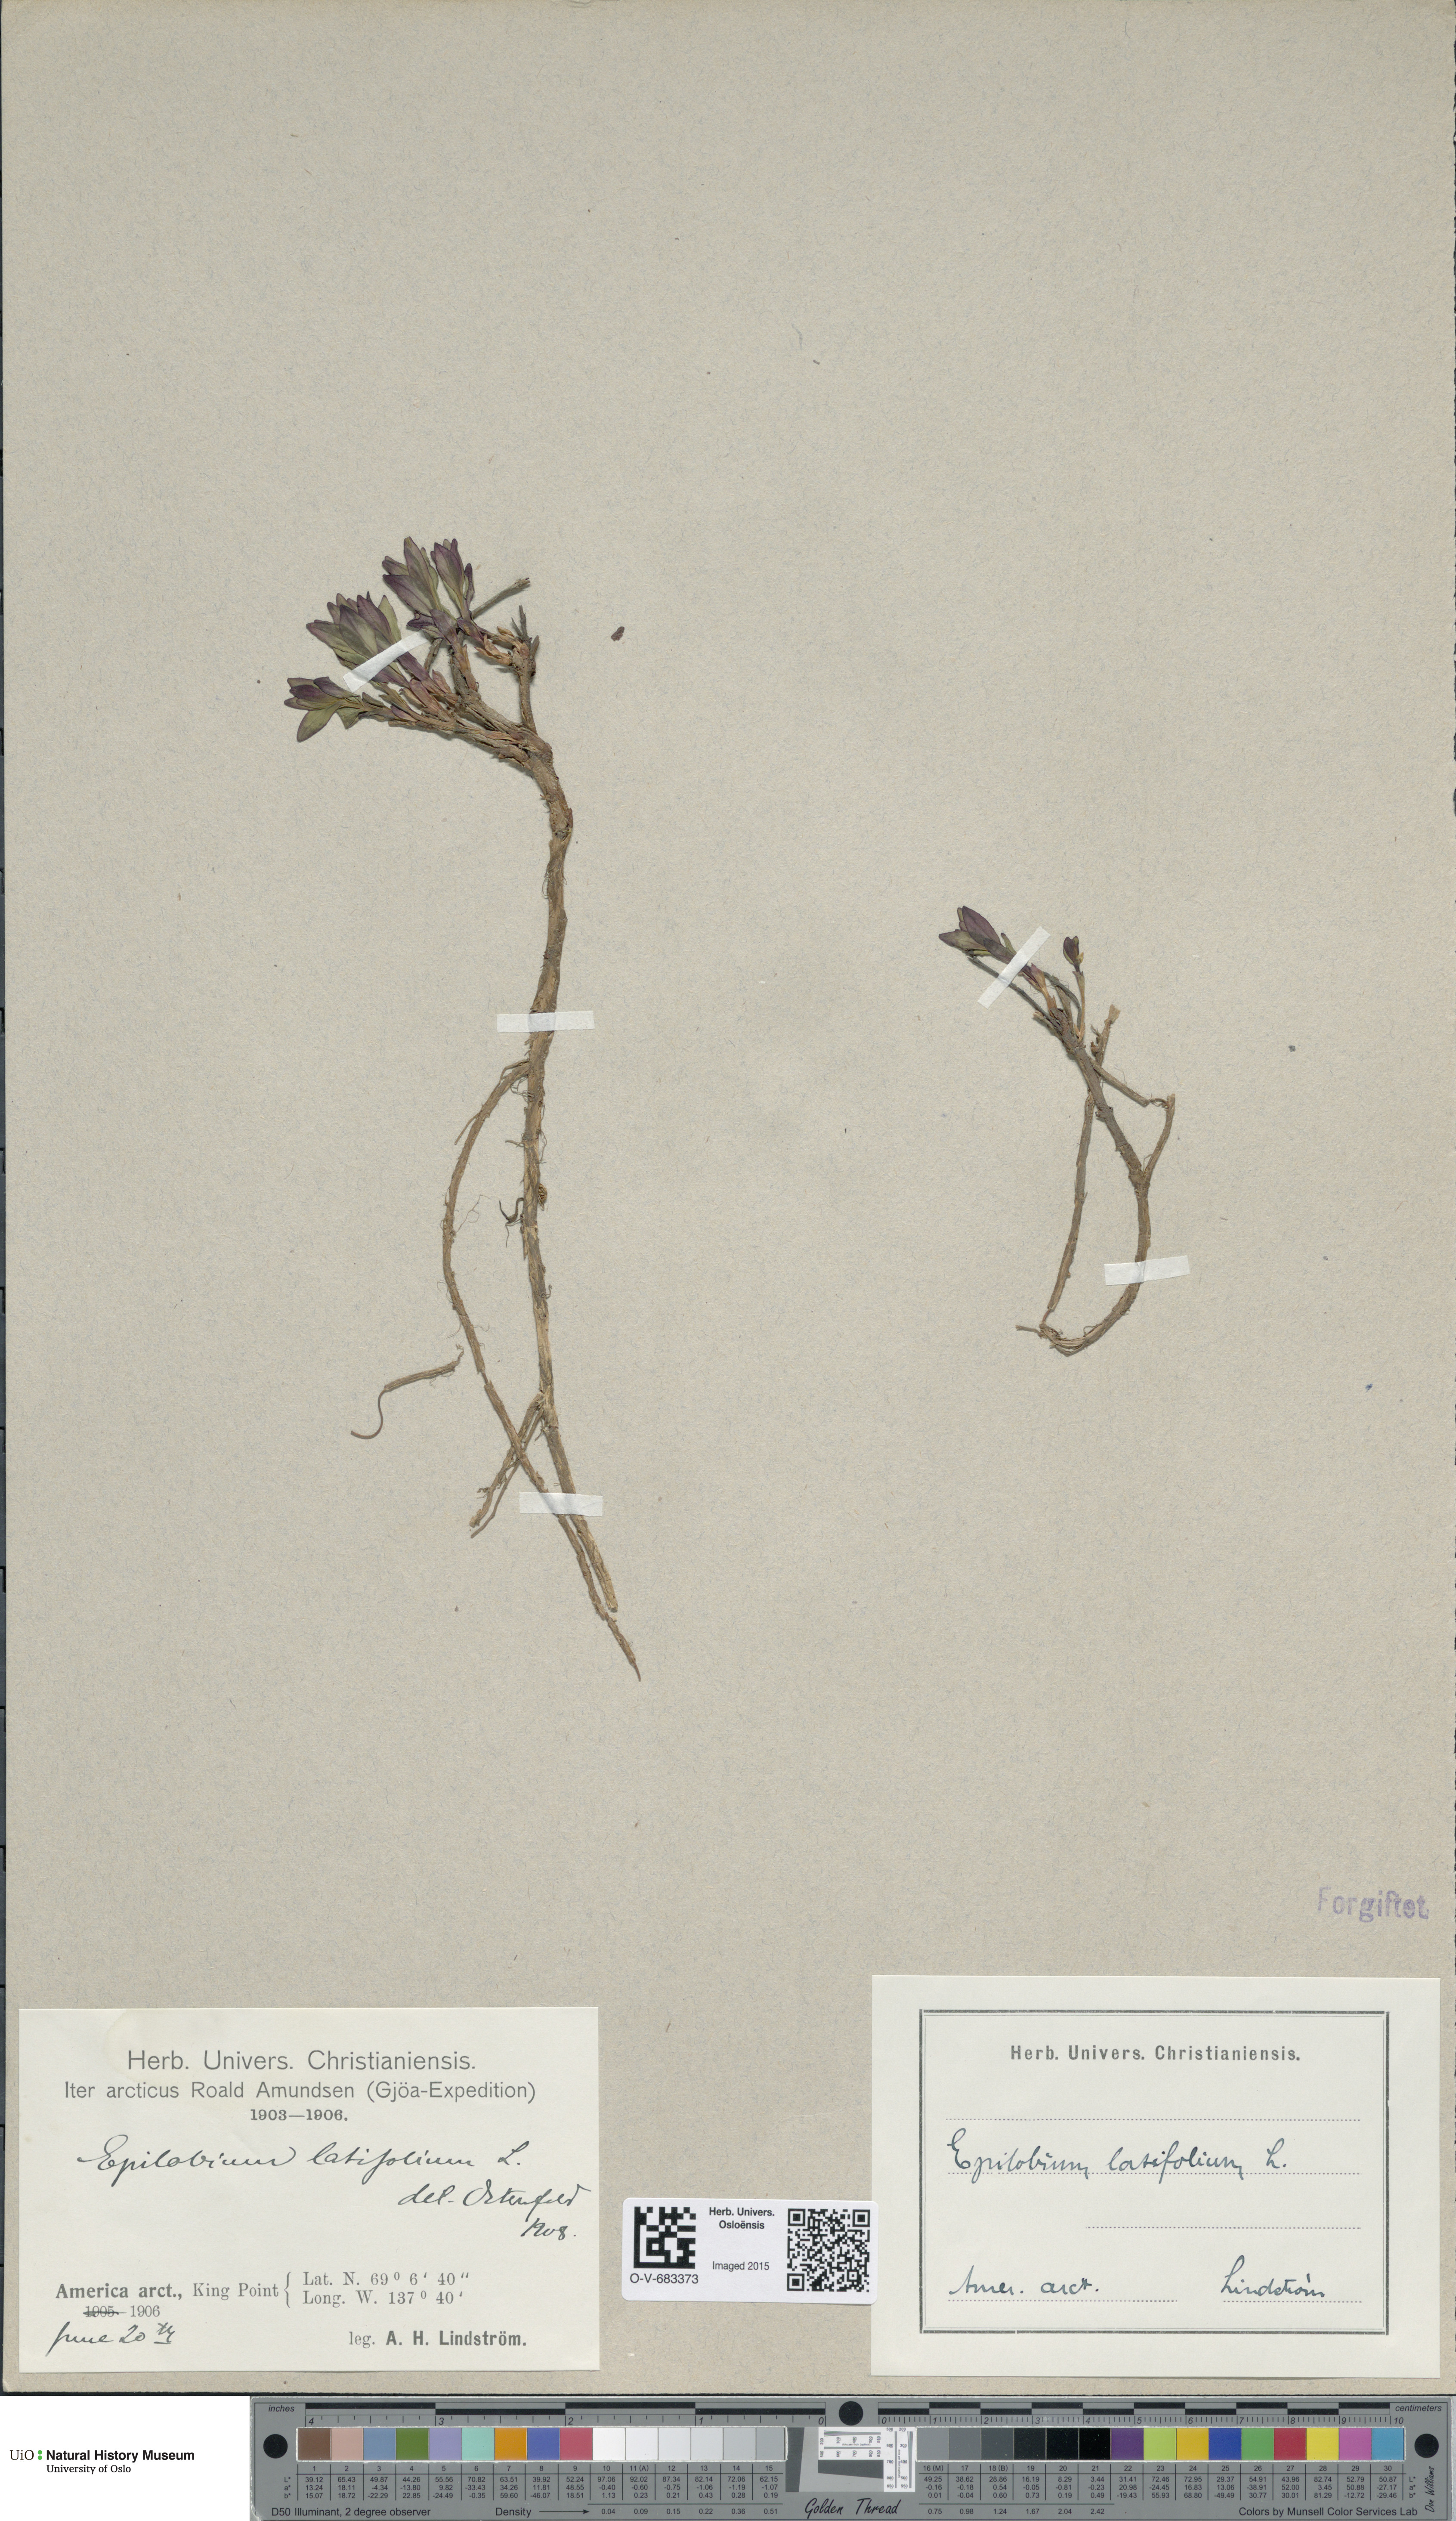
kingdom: Plantae
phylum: Tracheophyta
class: Magnoliopsida
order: Myrtales
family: Onagraceae
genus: Chamaenerion
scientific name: Chamaenerion latifolium
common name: Dwarf fireweed
